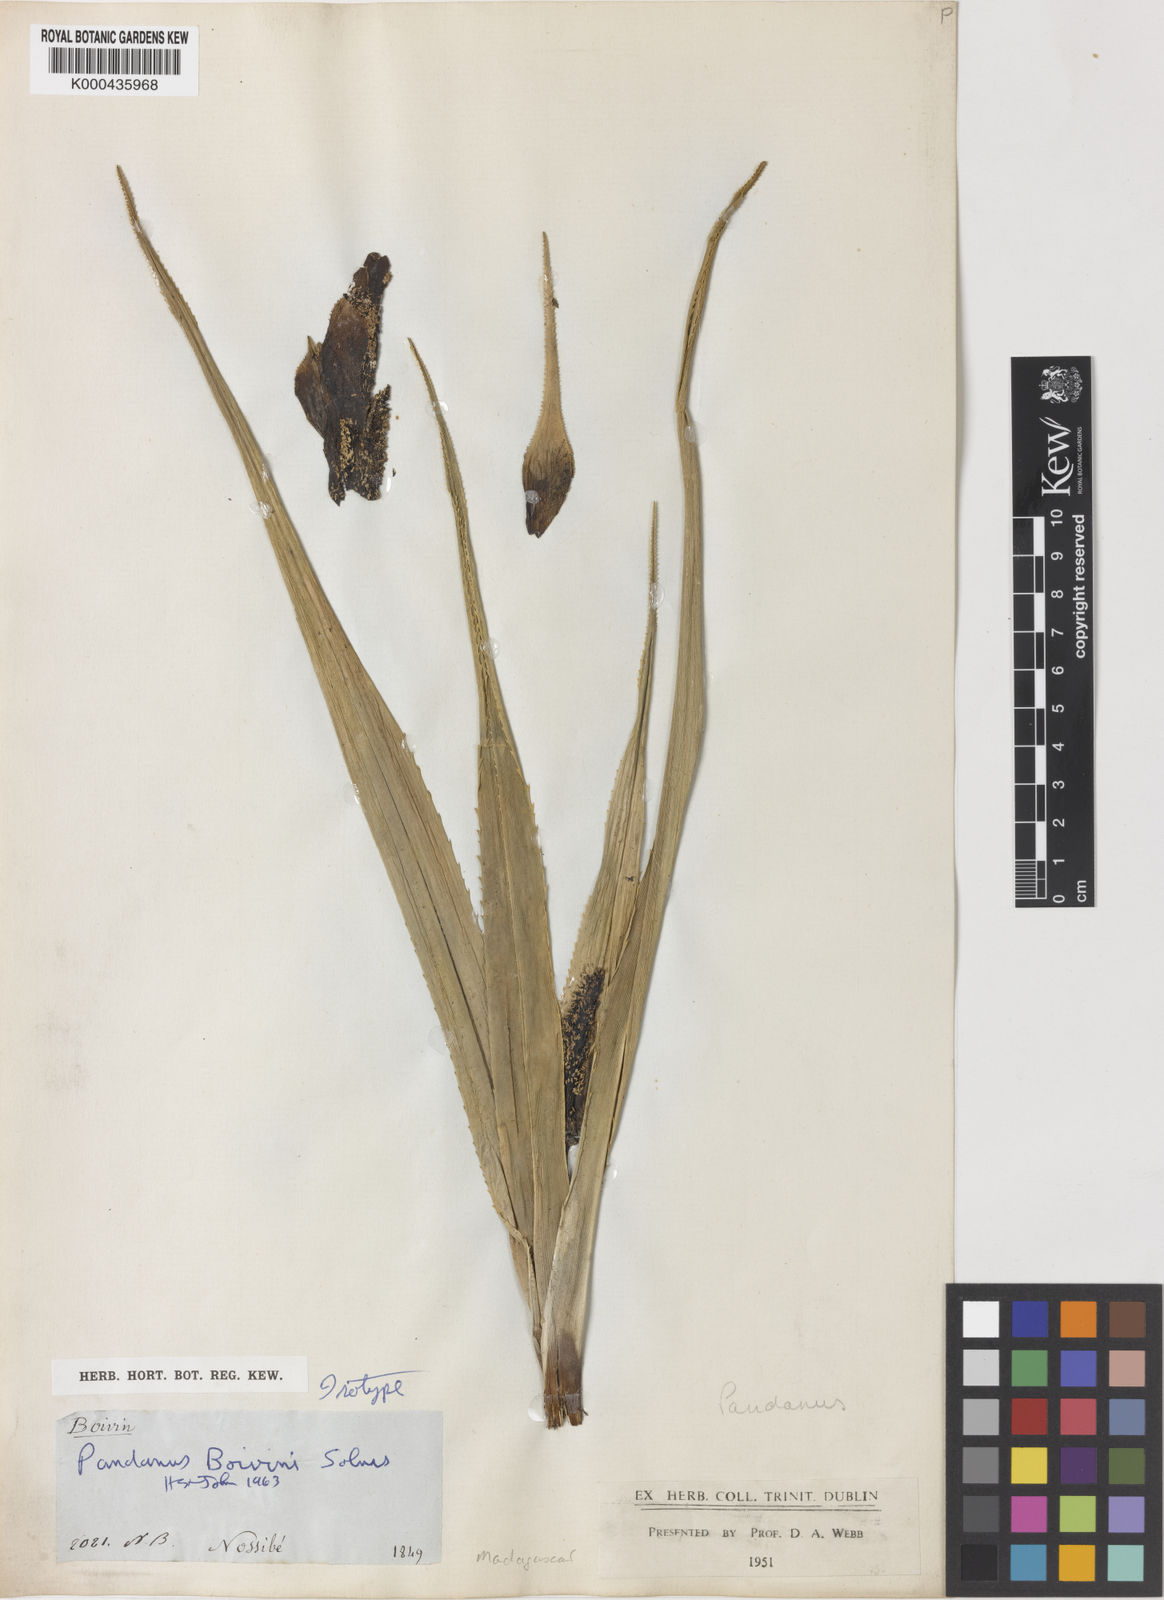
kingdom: Plantae
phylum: Tracheophyta
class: Liliopsida
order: Pandanales
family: Pandanaceae
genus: Pandanus
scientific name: Pandanus boivinii
